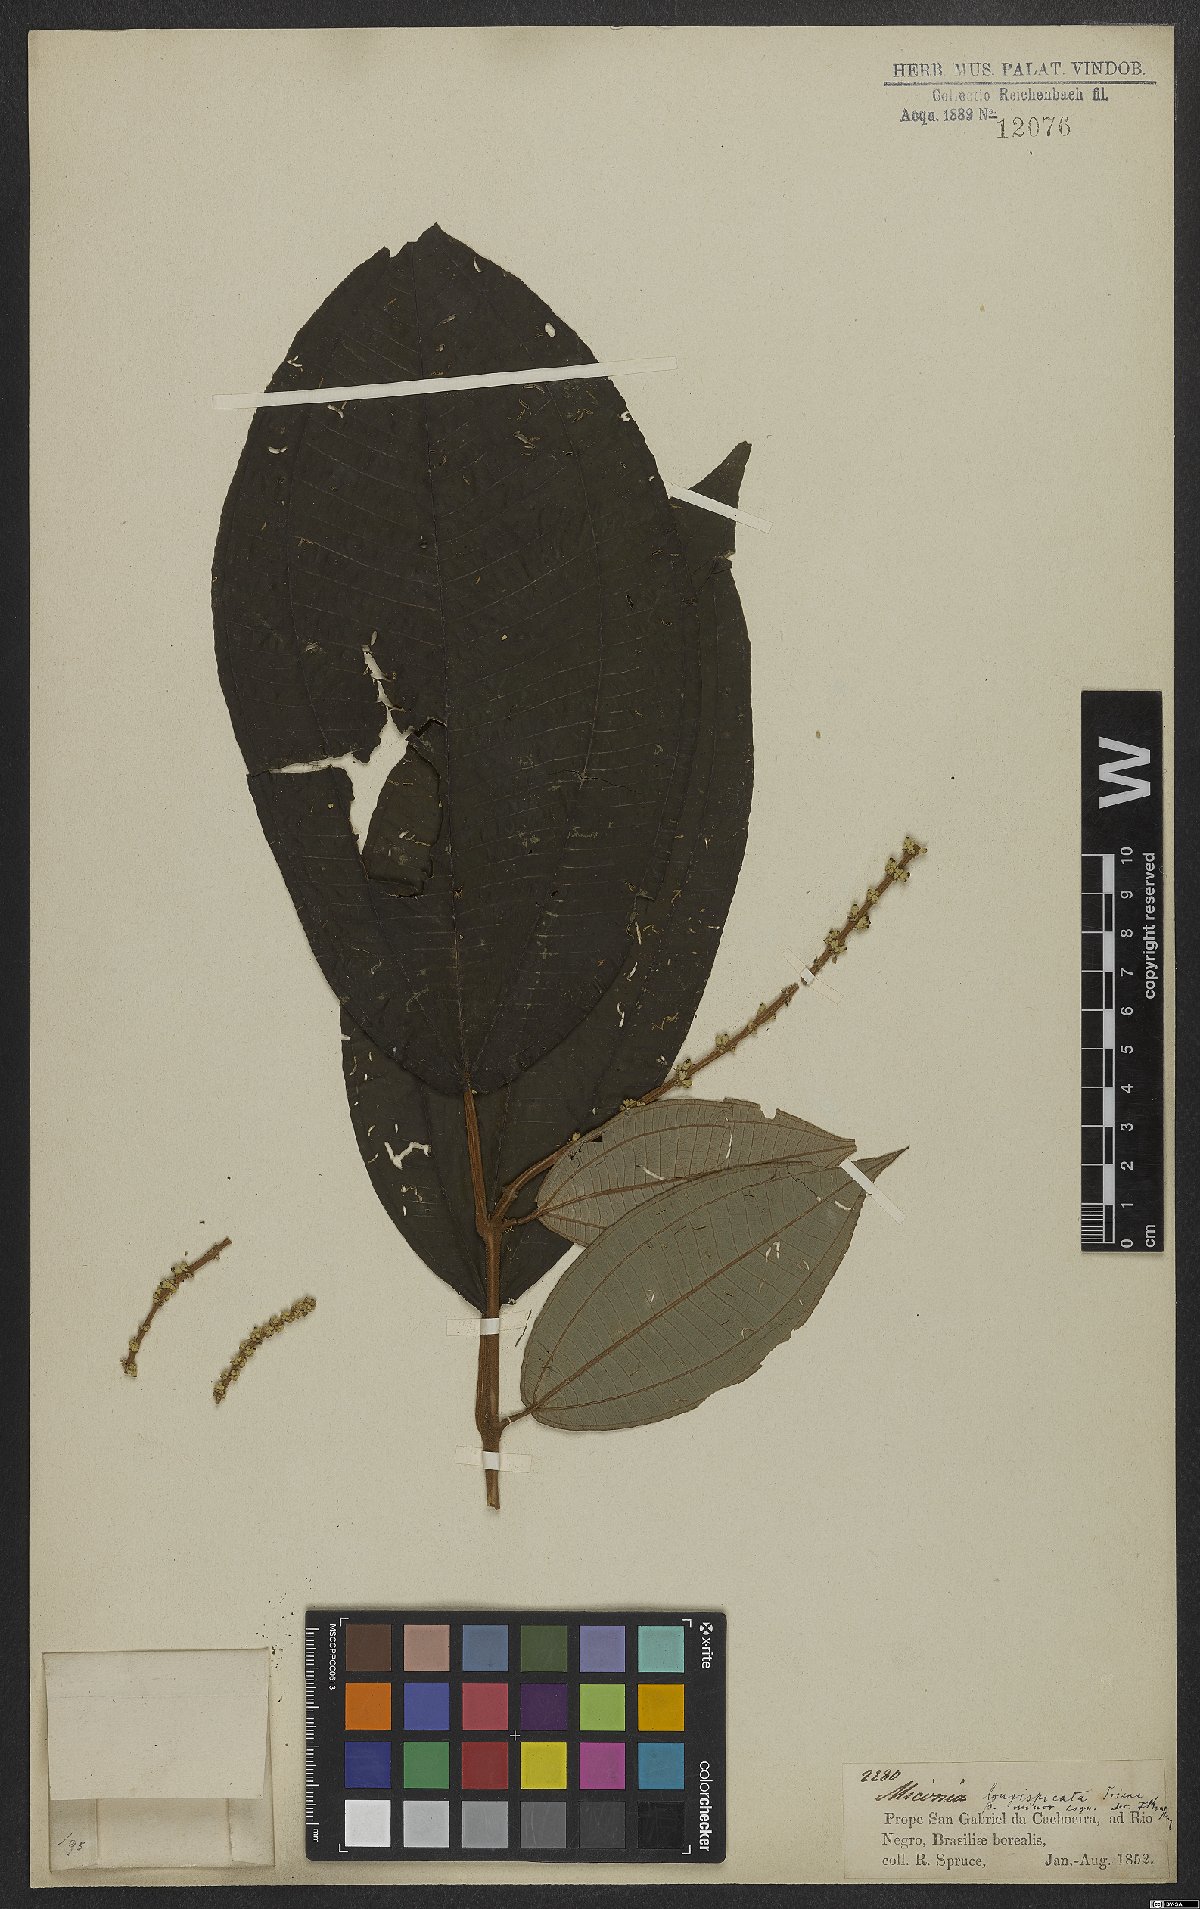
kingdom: Plantae
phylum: Tracheophyta
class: Magnoliopsida
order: Myrtales
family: Melastomataceae
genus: Miconia
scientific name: Miconia longispicata
